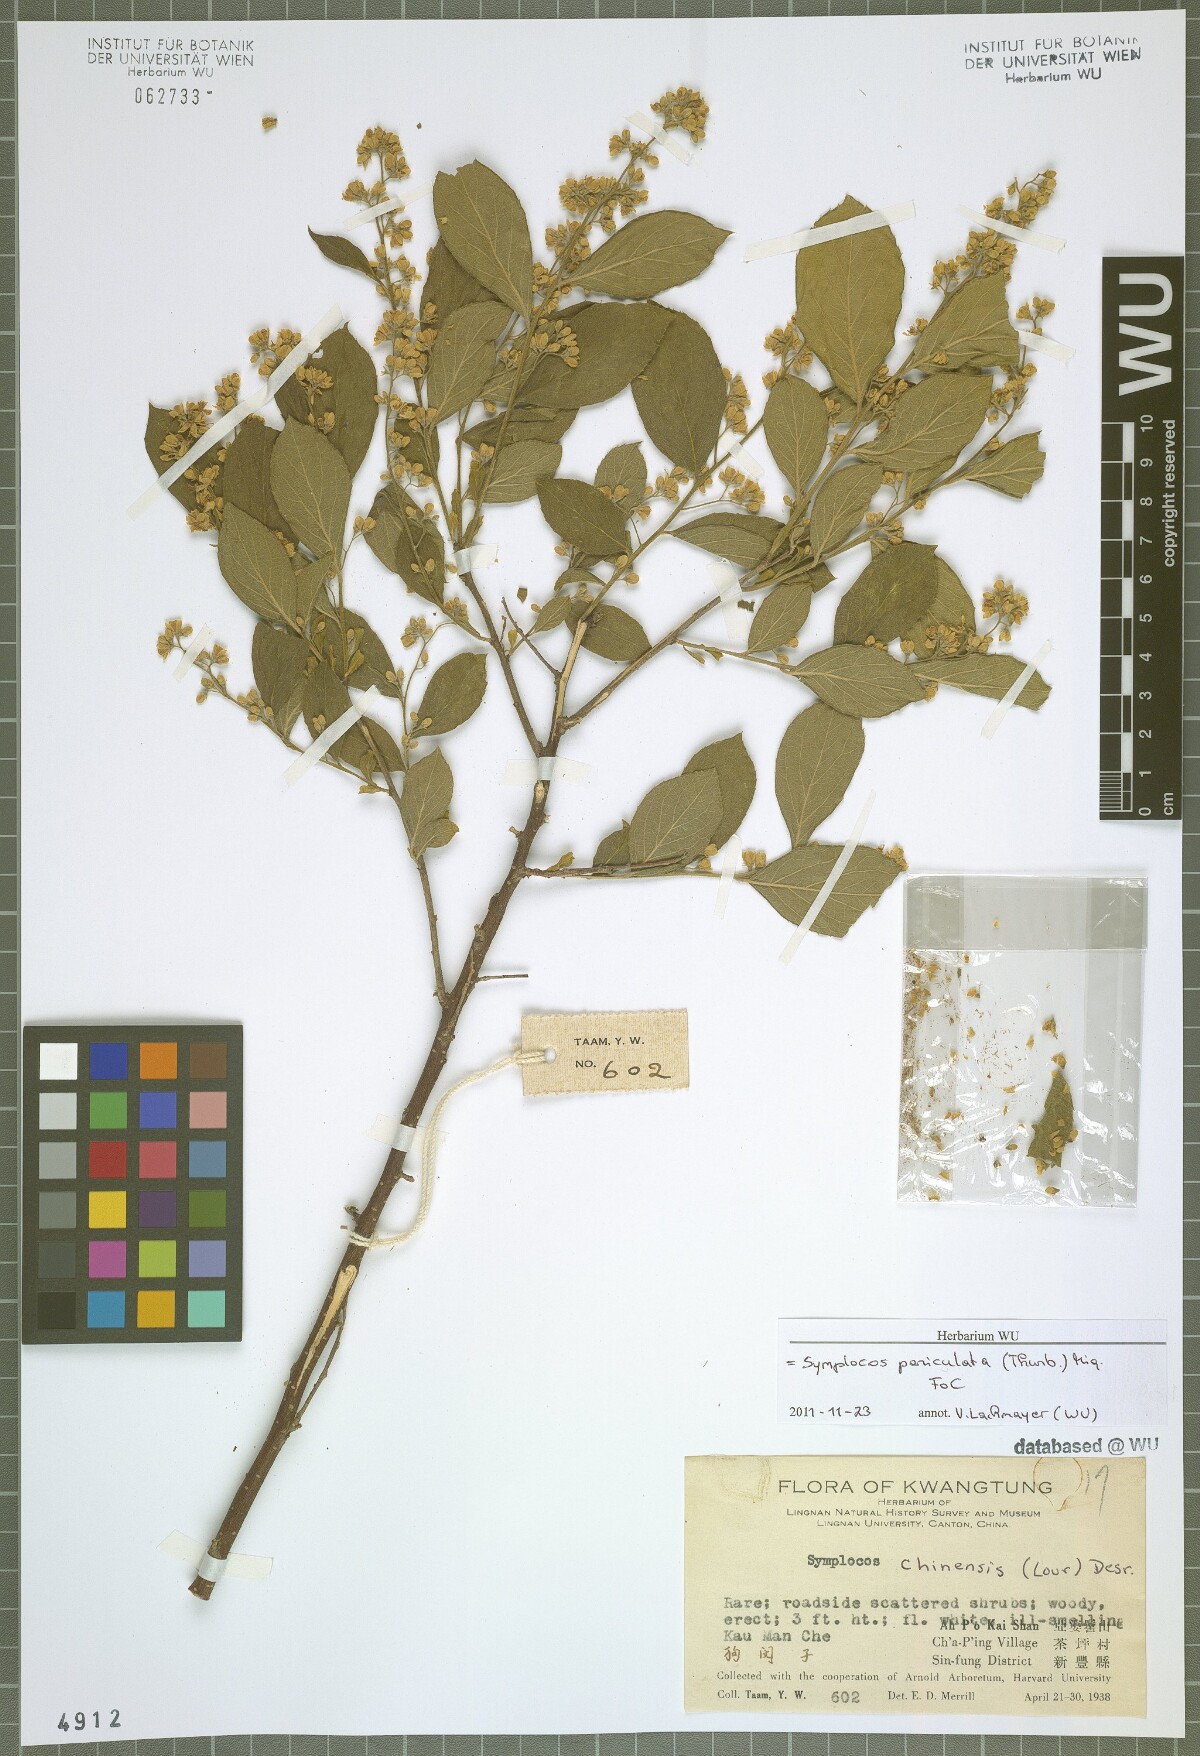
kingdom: Plantae
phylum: Tracheophyta
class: Magnoliopsida
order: Ericales
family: Symplocaceae
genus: Symplocos
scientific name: Symplocos paniculata
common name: Sapphire-berry
